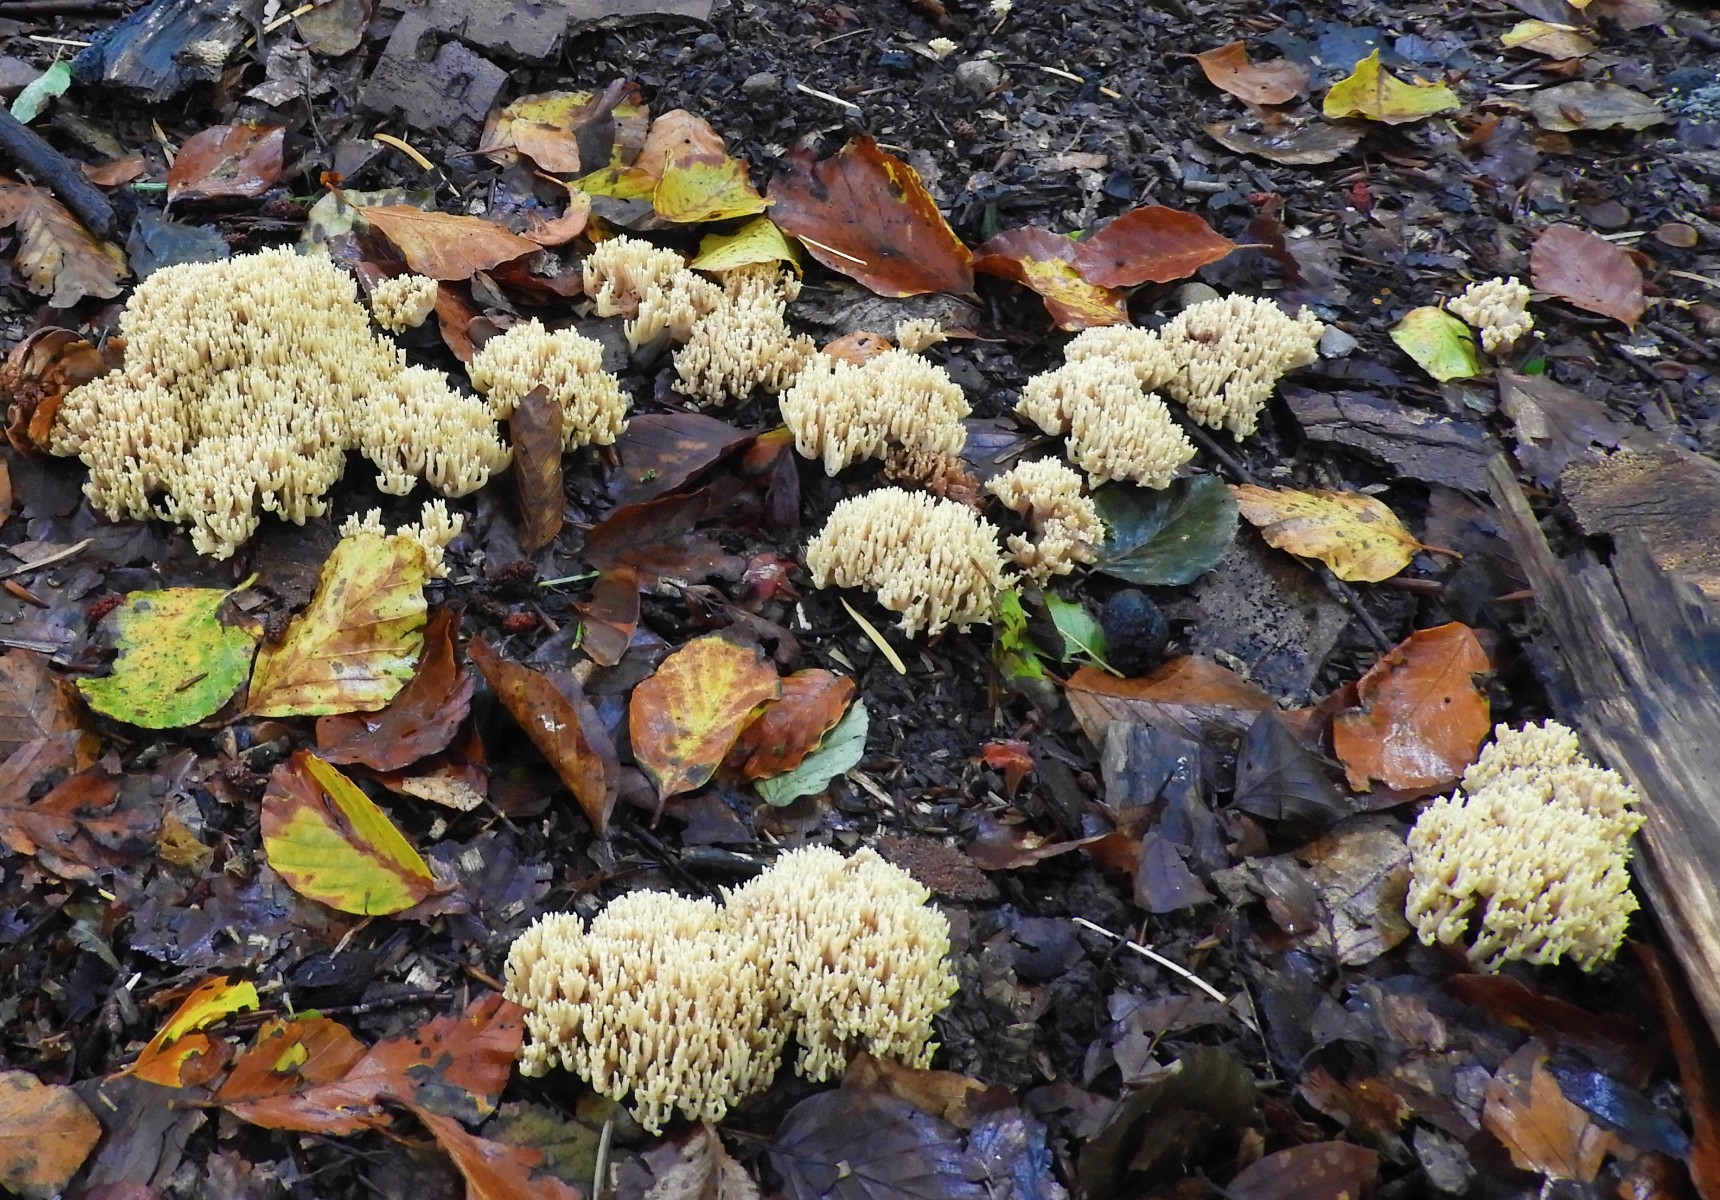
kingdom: Fungi
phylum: Basidiomycota
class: Agaricomycetes
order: Gomphales
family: Gomphaceae
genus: Ramaria
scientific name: Ramaria stricta
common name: rank koralsvamp
